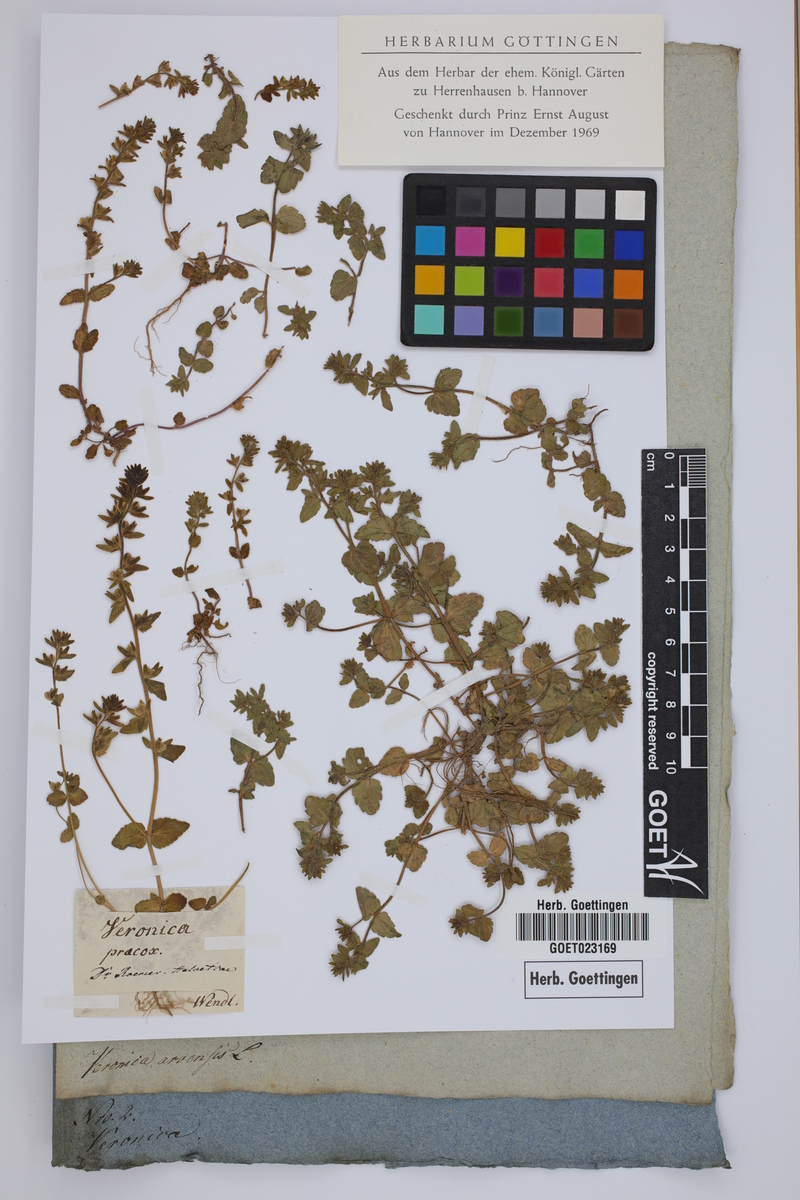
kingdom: Plantae
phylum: Tracheophyta
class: Magnoliopsida
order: Lamiales
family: Plantaginaceae
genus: Veronica
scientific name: Veronica praecox
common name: Breckland speedwell
